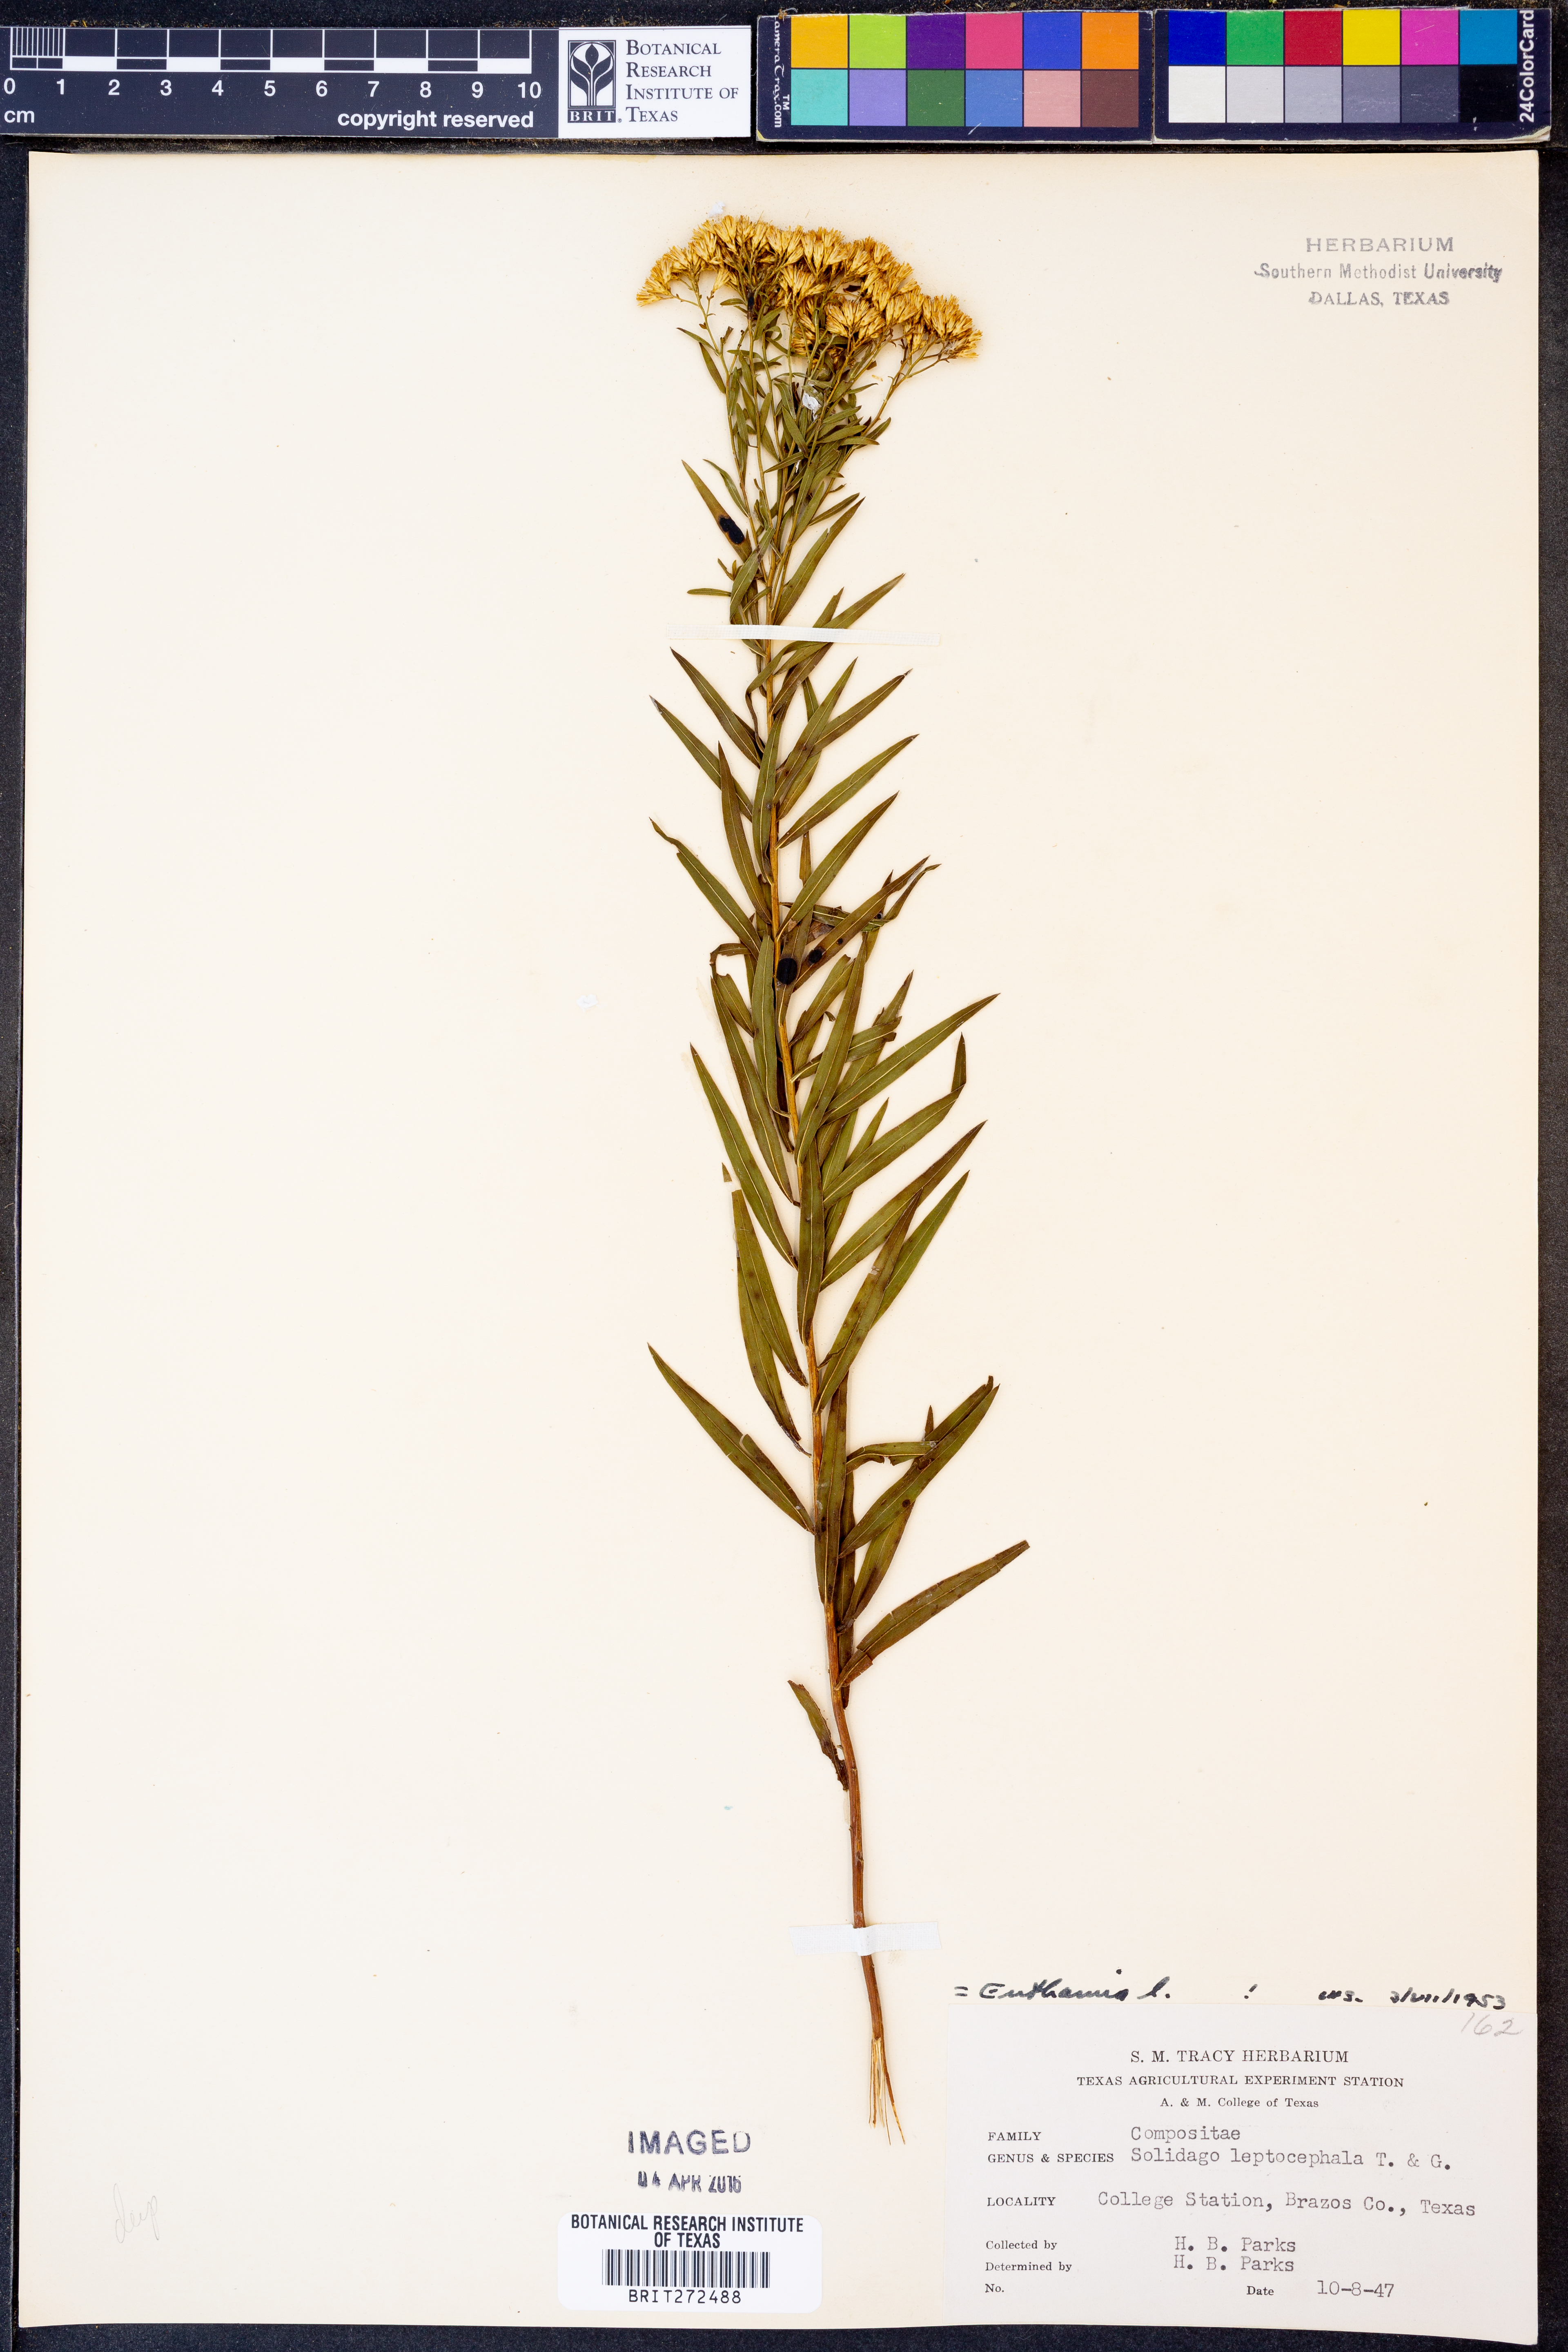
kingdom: Plantae
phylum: Tracheophyta
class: Magnoliopsida
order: Asterales
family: Asteraceae
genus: Euthamia
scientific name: Euthamia leptocephala
